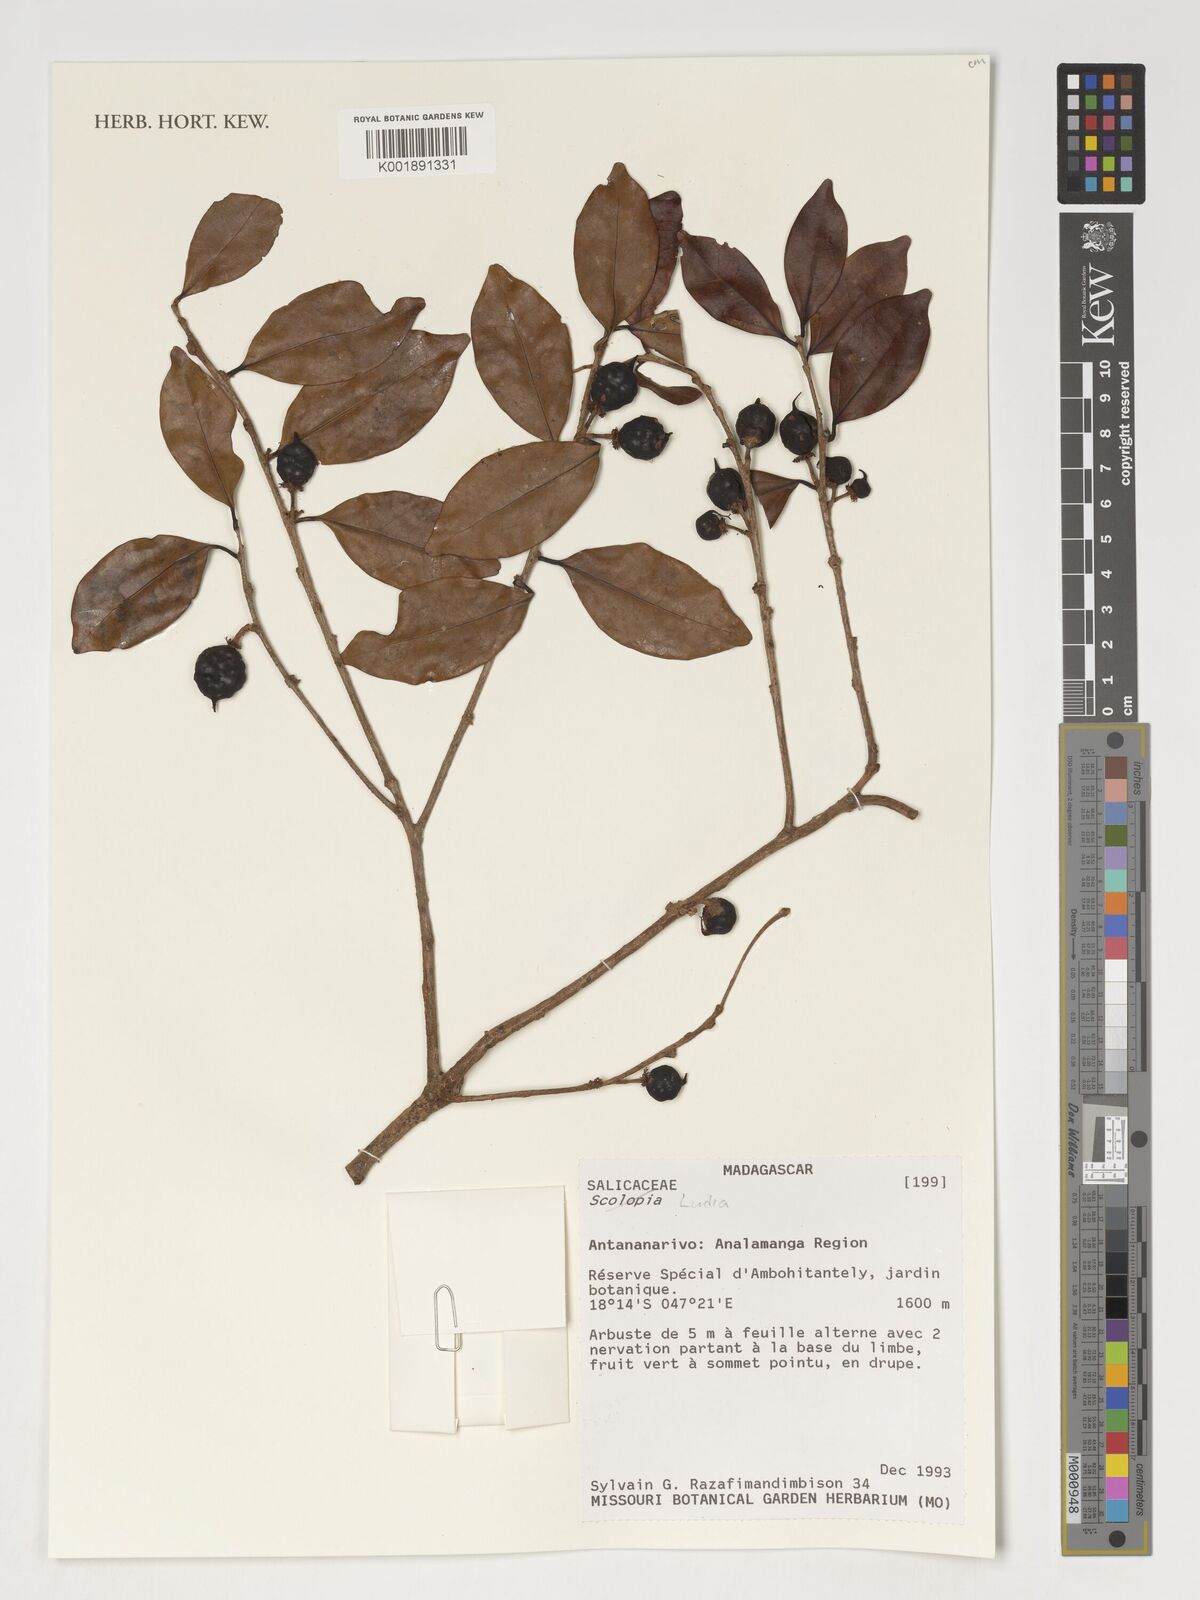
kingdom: Plantae
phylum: Tracheophyta
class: Magnoliopsida
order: Malpighiales
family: Salicaceae
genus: Ludia
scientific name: Ludia
